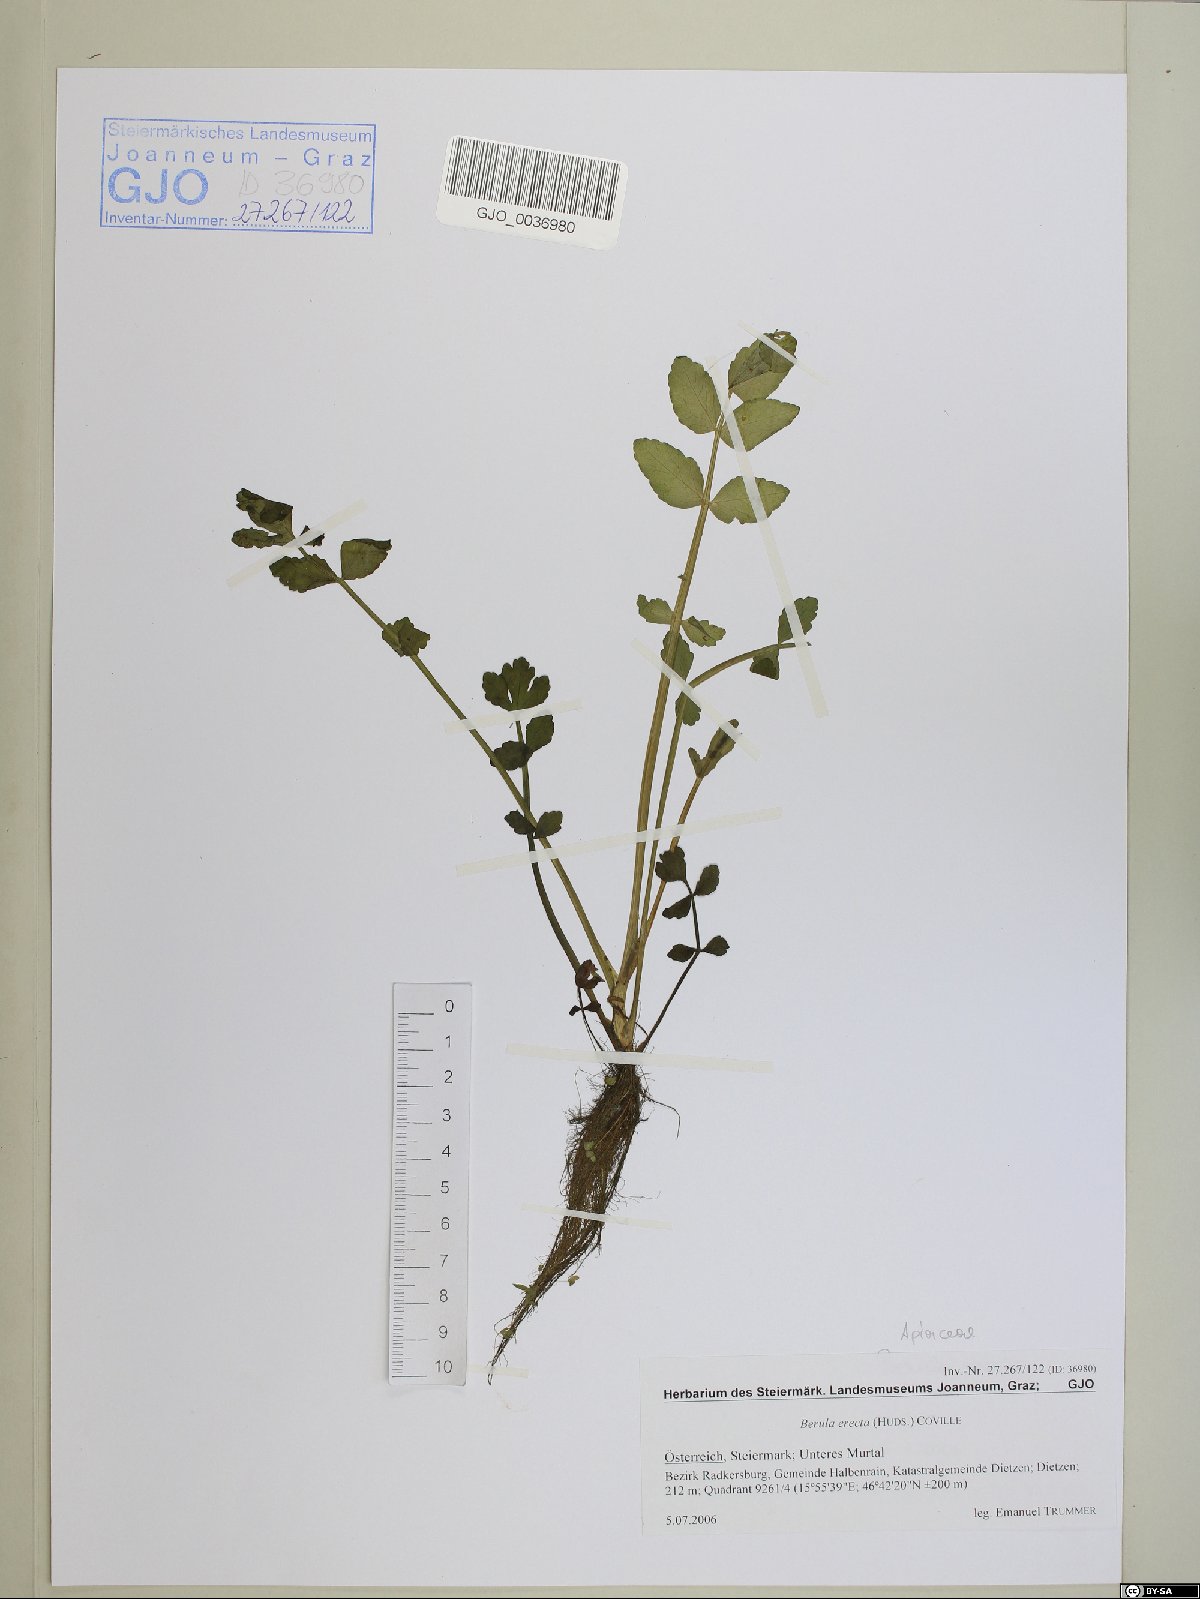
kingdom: Plantae
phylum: Tracheophyta
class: Magnoliopsida
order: Apiales
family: Apiaceae
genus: Berula
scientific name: Berula erecta
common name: Lesser water-parsnip
